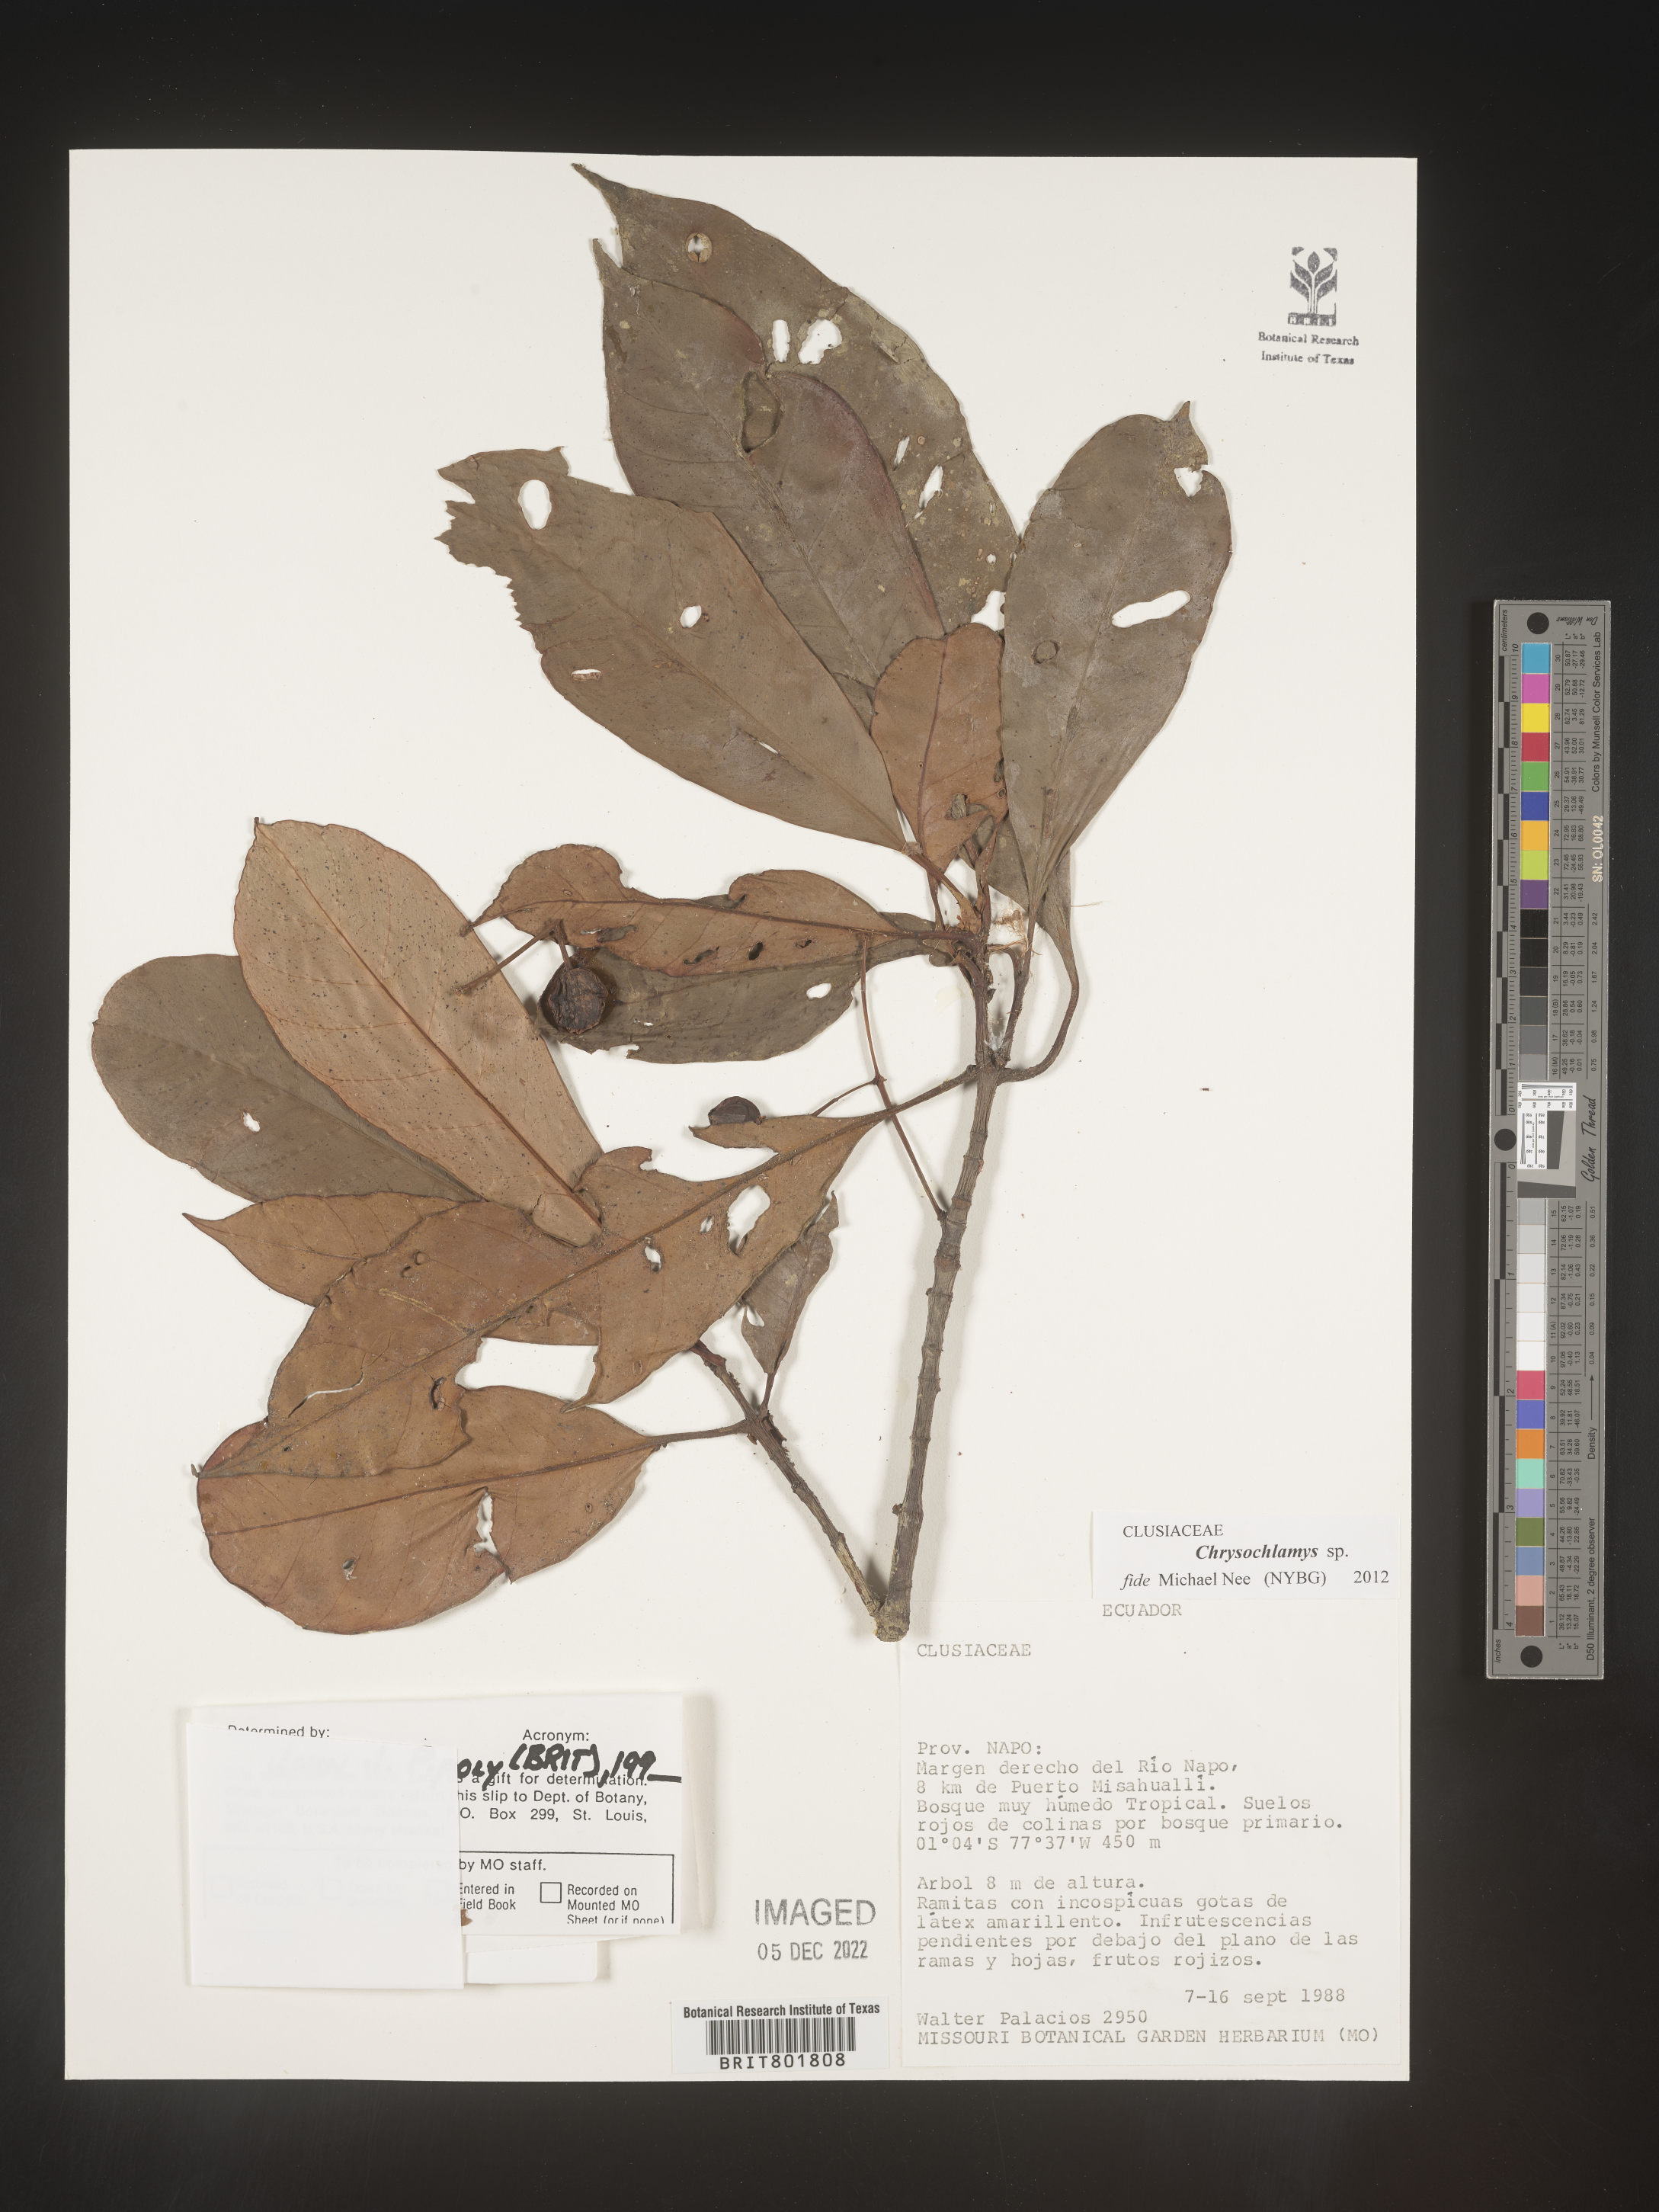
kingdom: Plantae
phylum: Tracheophyta
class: Magnoliopsida
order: Malpighiales
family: Clusiaceae
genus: Chrysochlamys
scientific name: Chrysochlamys
